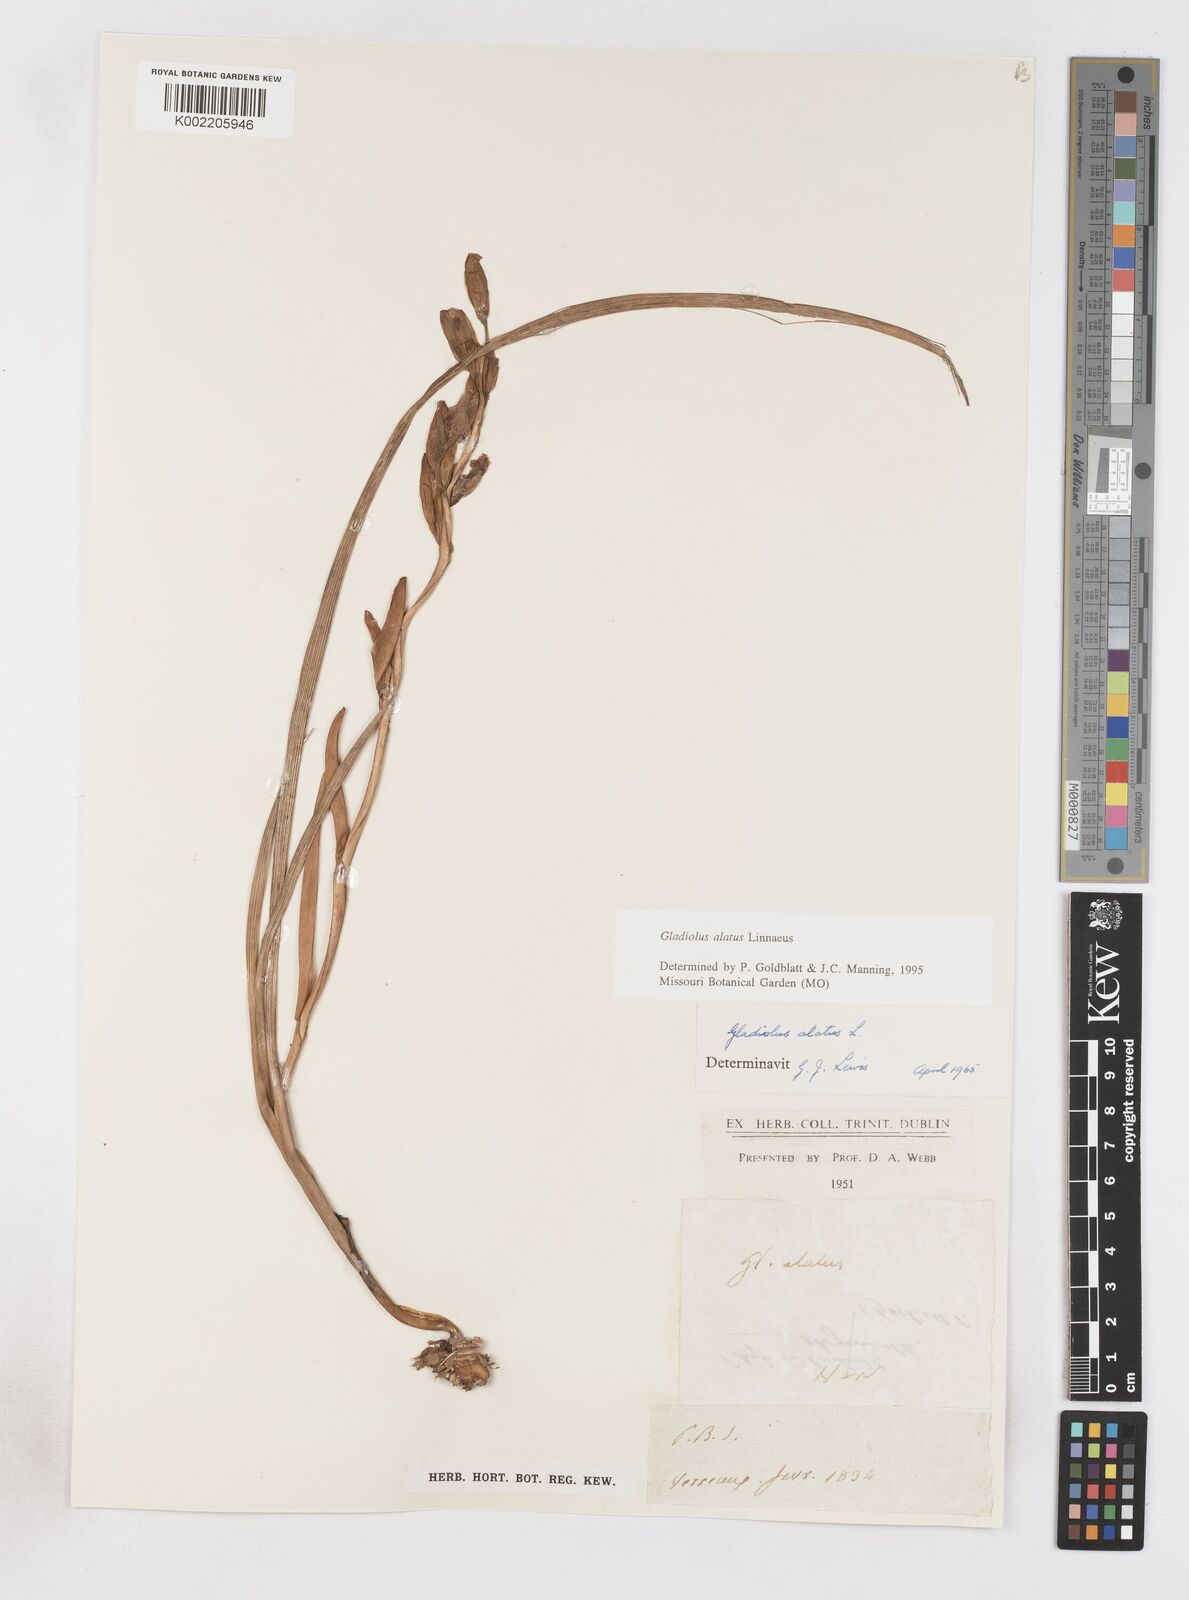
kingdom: Plantae
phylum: Tracheophyta
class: Liliopsida
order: Asparagales
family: Iridaceae
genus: Gladiolus
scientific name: Gladiolus alatus
